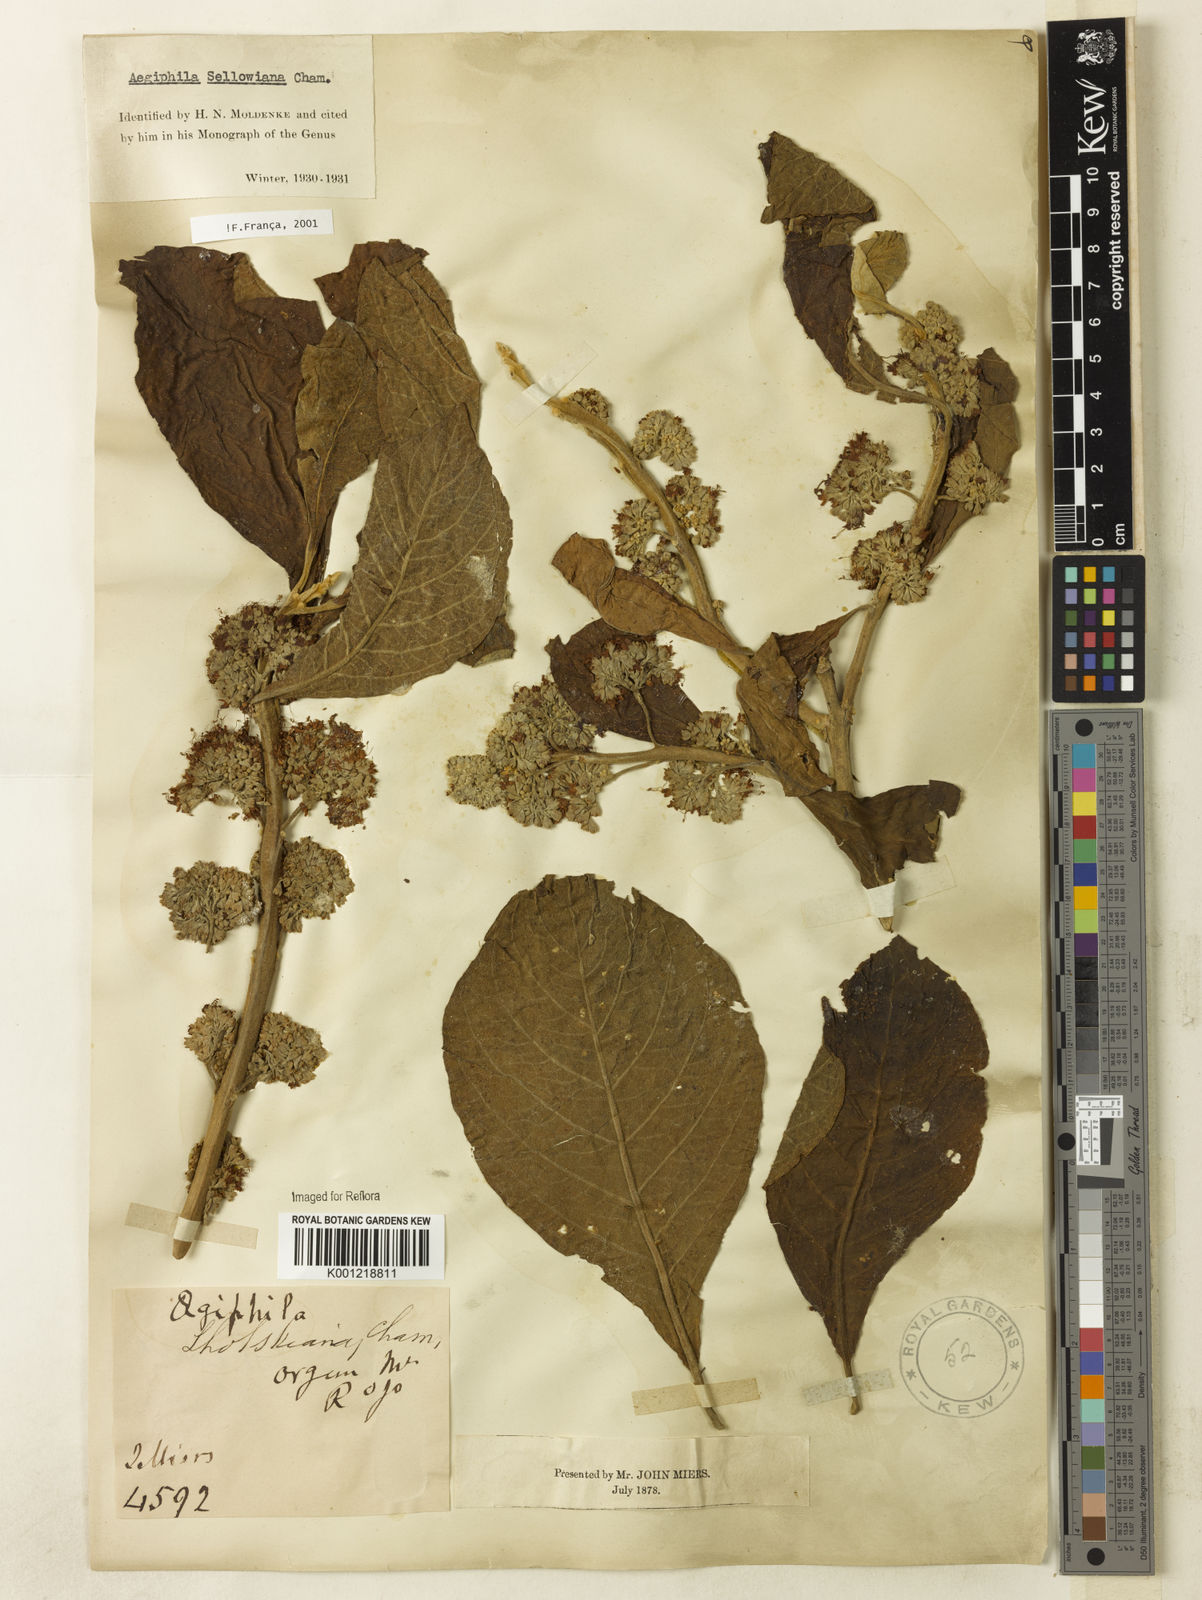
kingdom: Plantae
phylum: Tracheophyta
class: Magnoliopsida
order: Lamiales
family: Lamiaceae
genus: Aegiphila
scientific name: Aegiphila verticillata
